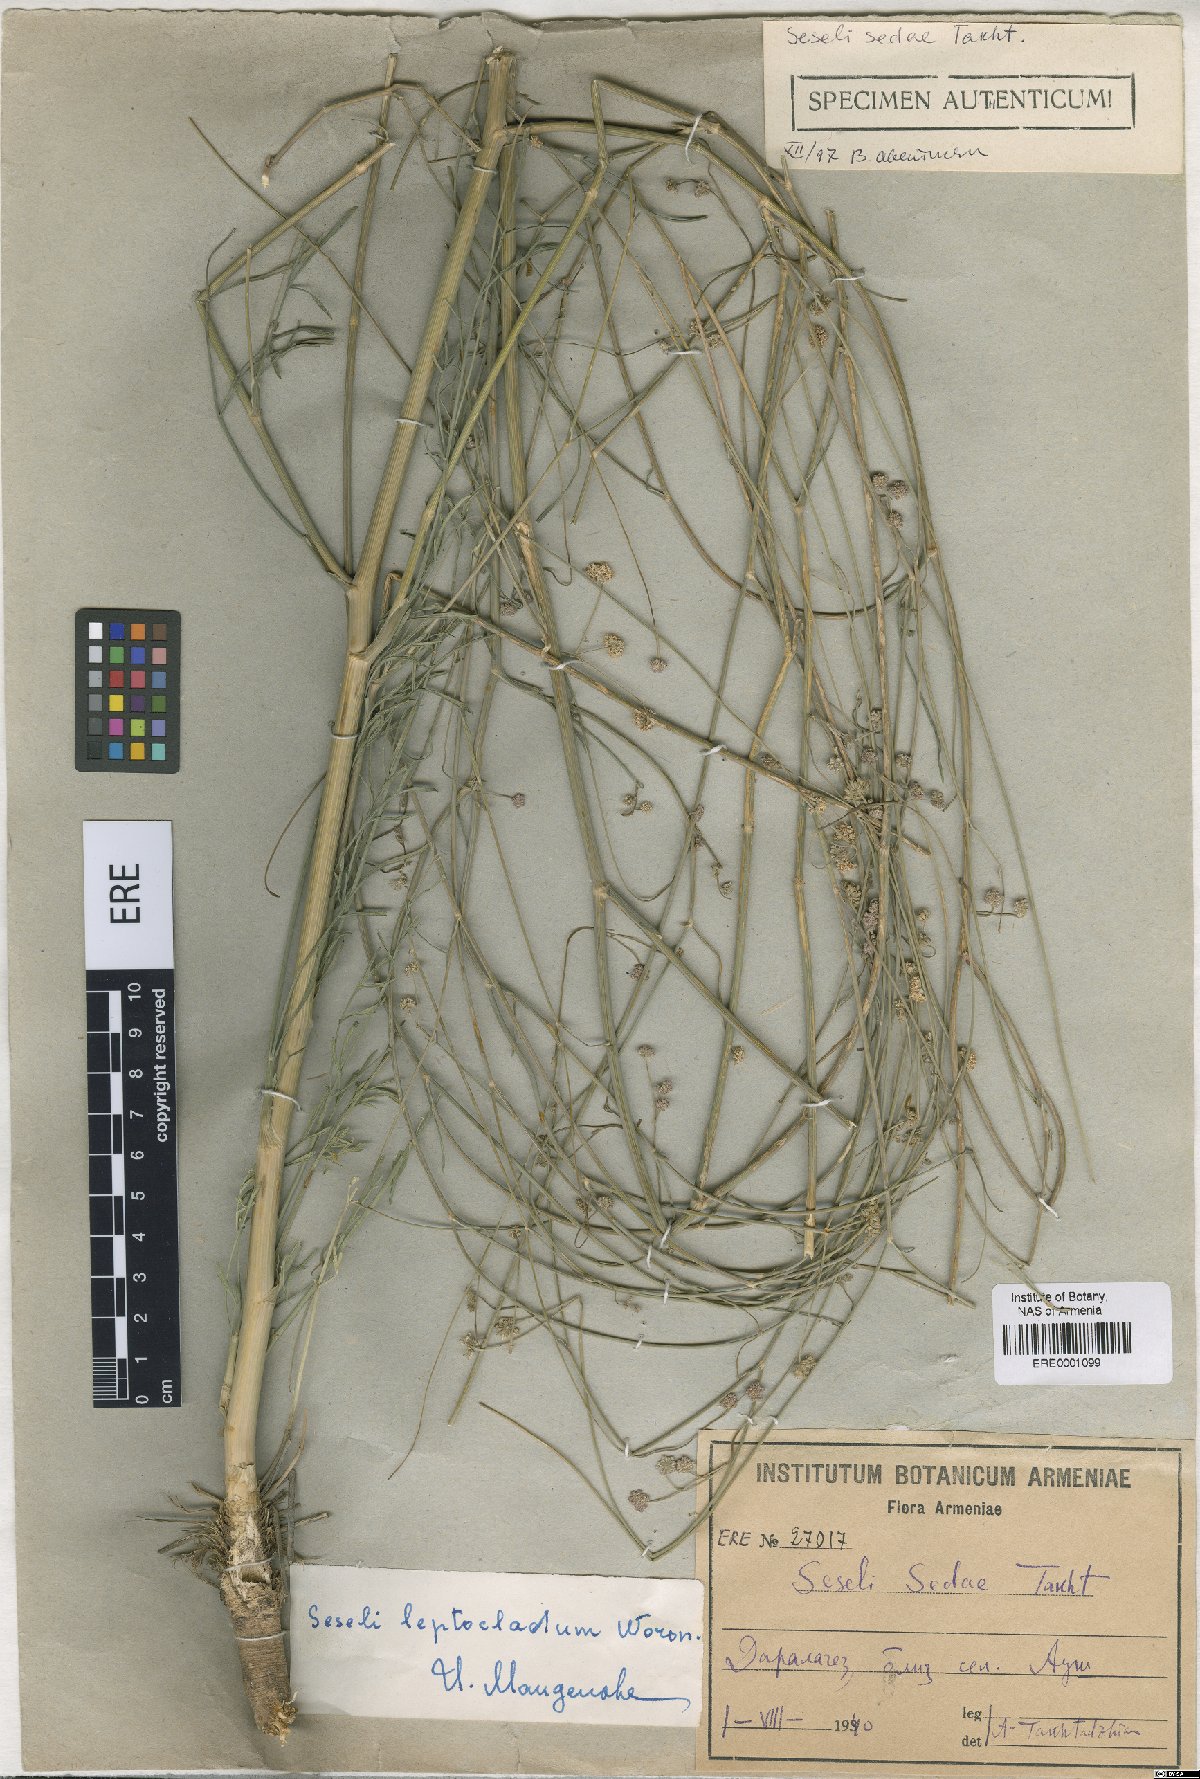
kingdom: Plantae
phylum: Tracheophyta
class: Magnoliopsida
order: Apiales
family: Apiaceae
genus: Seseli
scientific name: Seseli leptocladum
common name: Finely twiggy seseli
